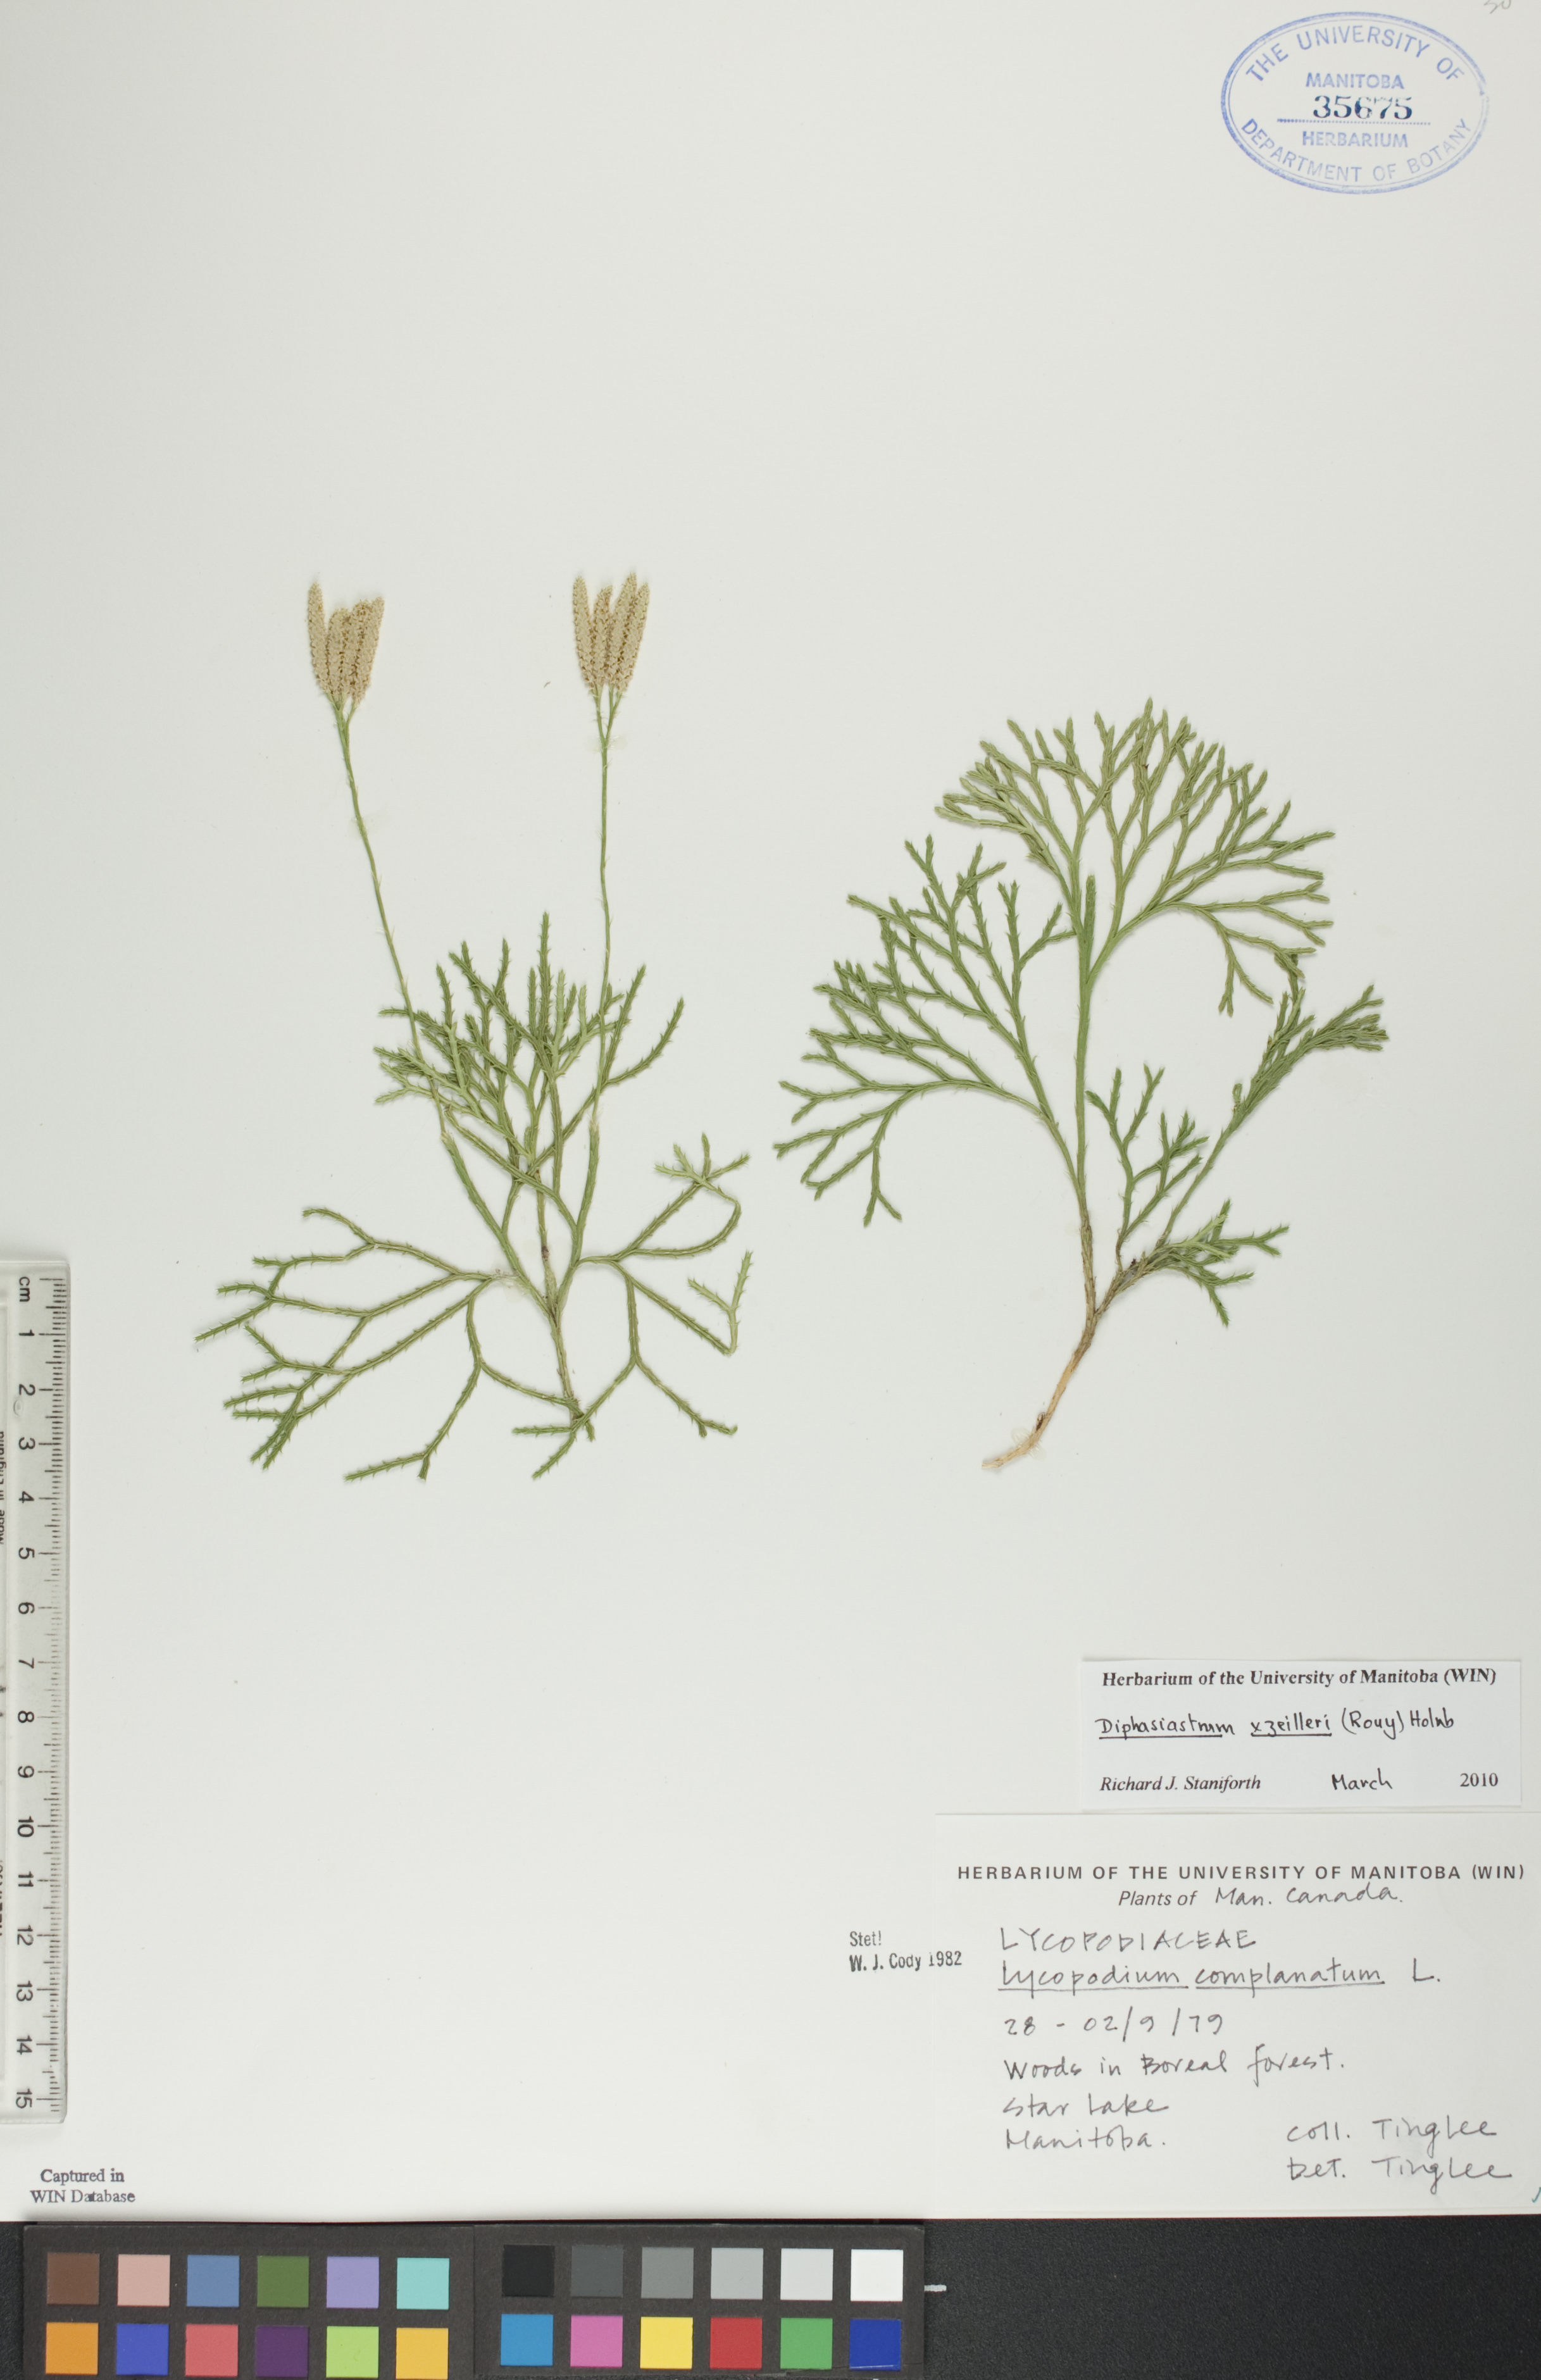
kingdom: Plantae
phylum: Tracheophyta
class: Lycopodiopsida
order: Lycopodiales
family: Lycopodiaceae
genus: Diphasiastrum
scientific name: Diphasiastrum zeilleri
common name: Zeiller's clubmoss
